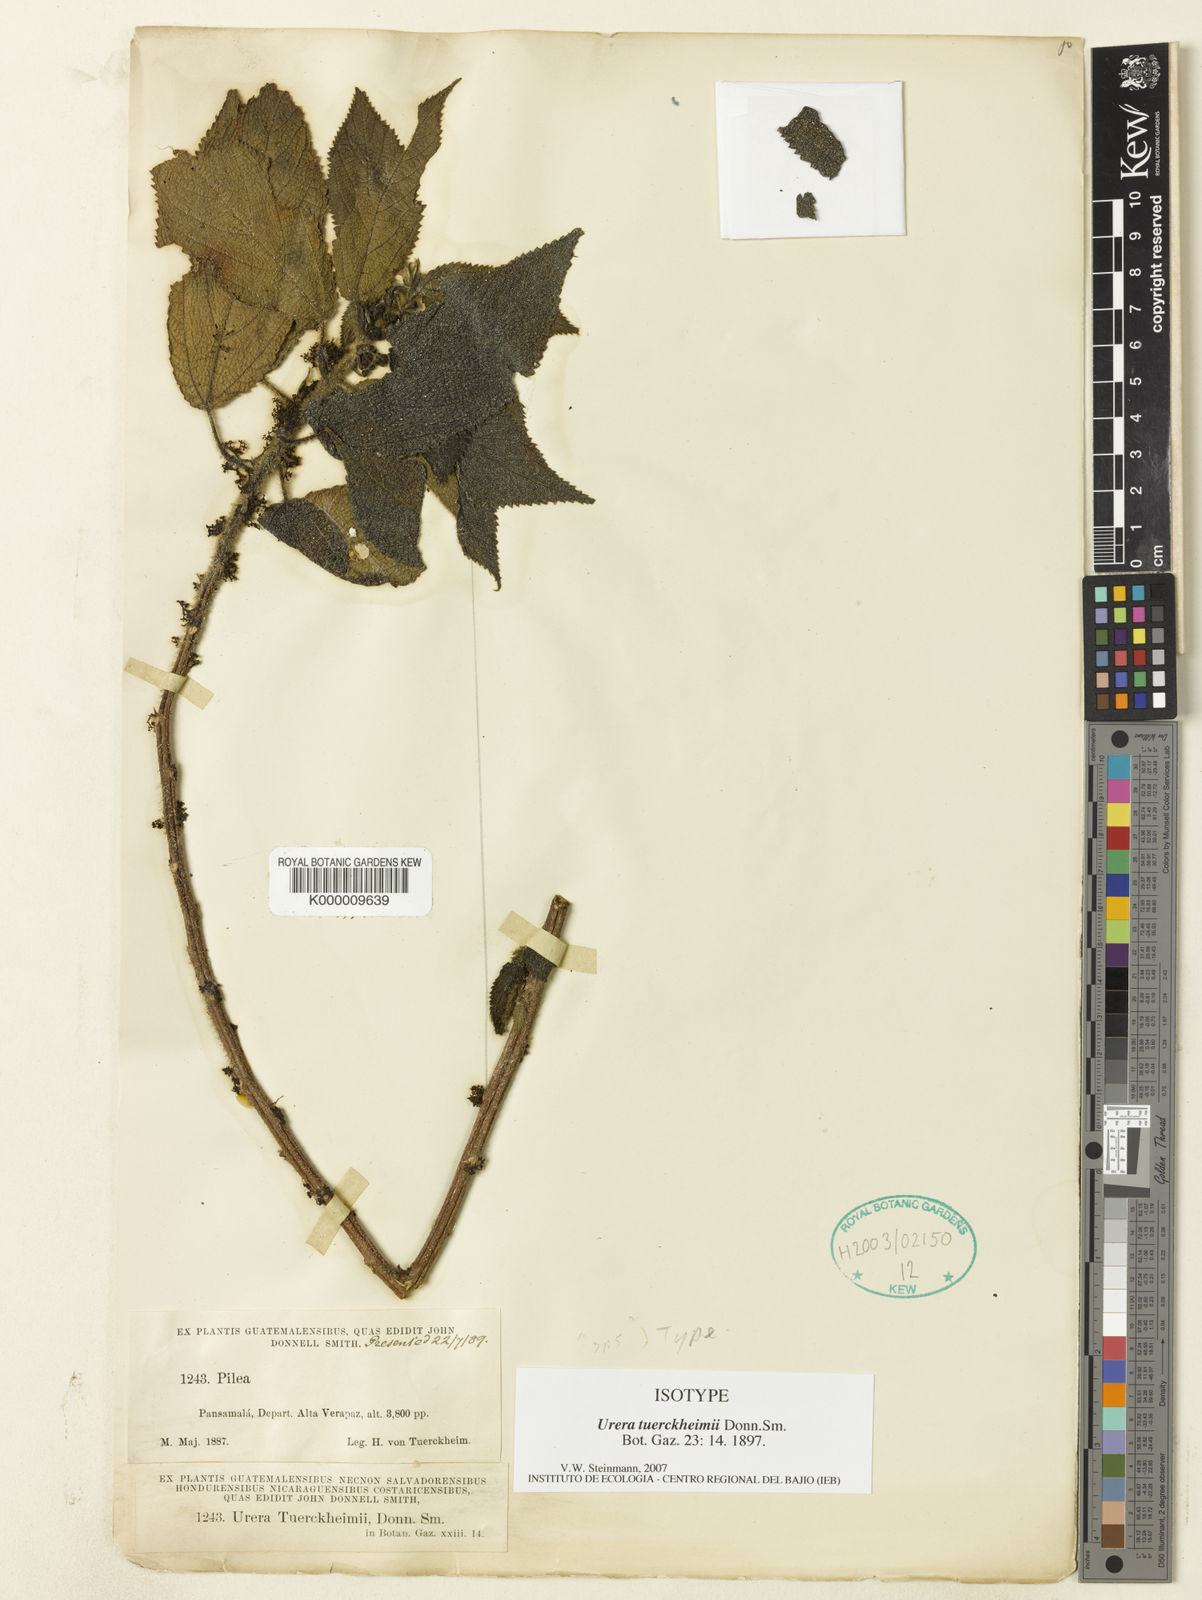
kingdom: Plantae
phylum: Tracheophyta
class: Magnoliopsida
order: Rosales
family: Urticaceae
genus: Urera
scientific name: Urera simplex
